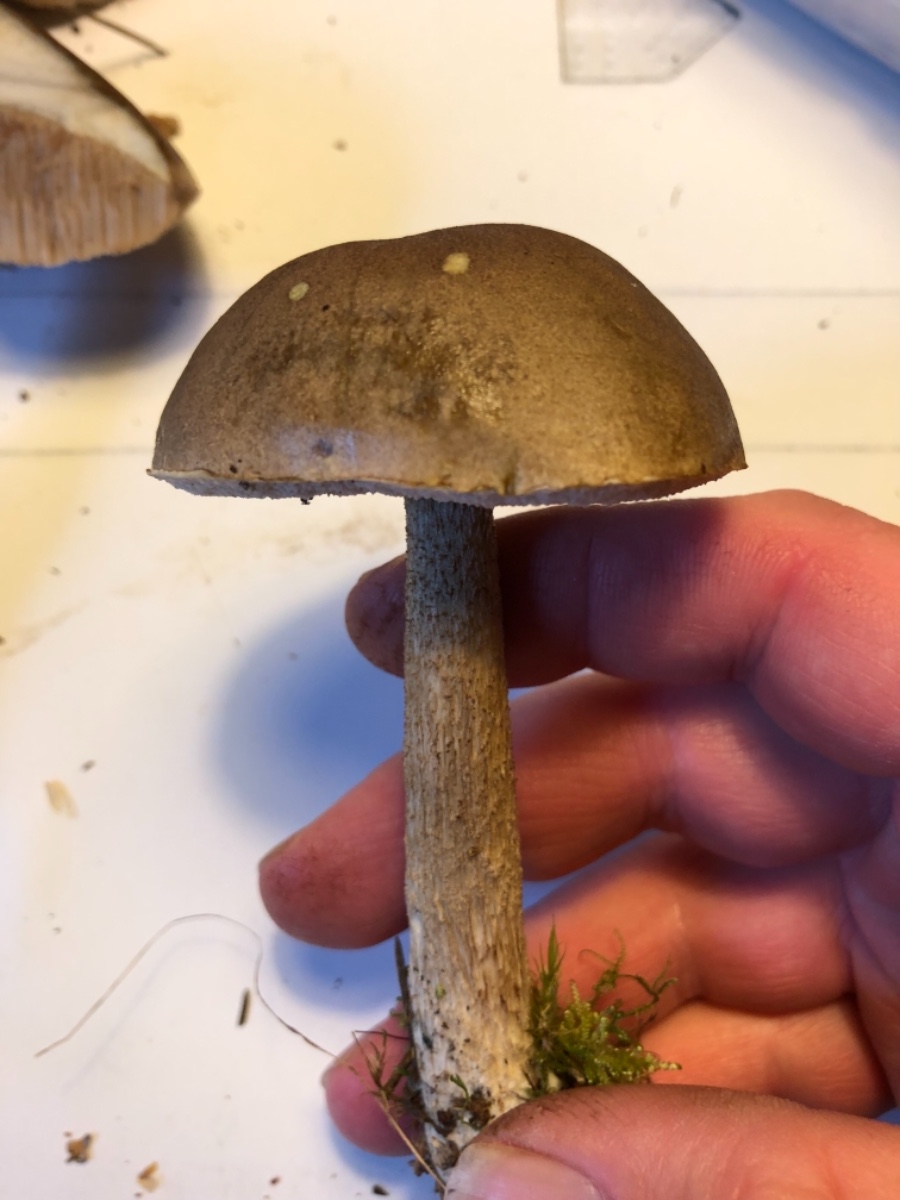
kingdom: Fungi
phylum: Basidiomycota
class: Agaricomycetes
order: Boletales
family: Boletaceae
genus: Leccinum
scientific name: Leccinum
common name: skælrørhat
